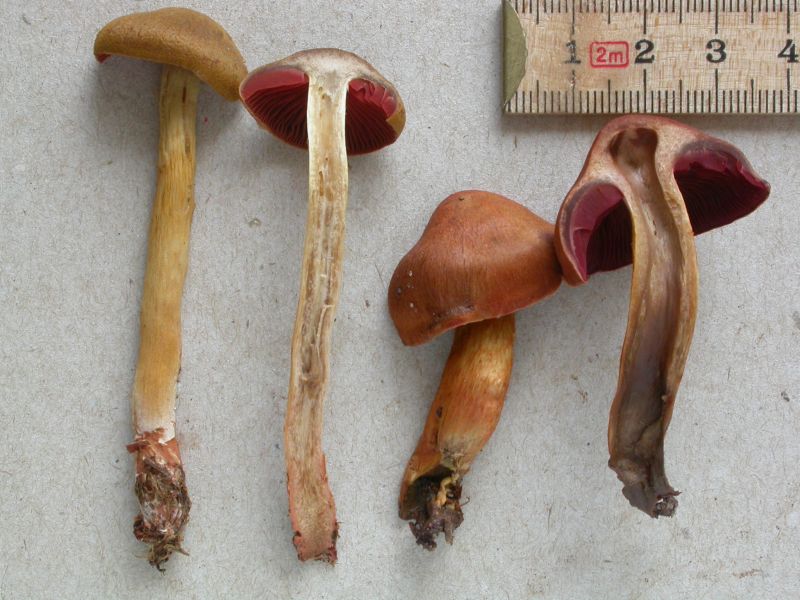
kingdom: Fungi
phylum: Basidiomycota
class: Agaricomycetes
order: Agaricales
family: Cortinariaceae
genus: Cortinarius
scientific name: Cortinarius purpureus
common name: brunrød slørhat
